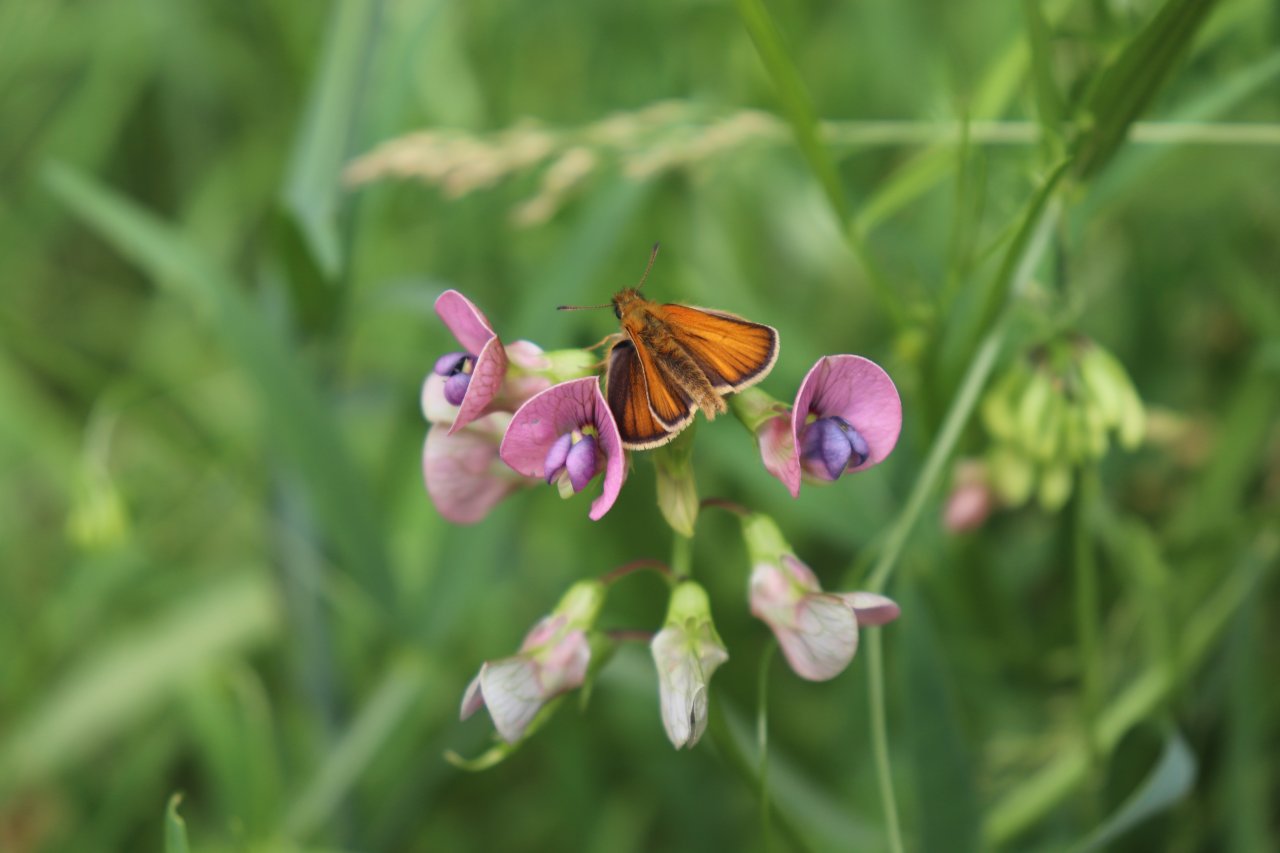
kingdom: Animalia
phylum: Arthropoda
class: Insecta
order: Lepidoptera
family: Hesperiidae
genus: Thymelicus
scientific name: Thymelicus lineola
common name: European Skipper
